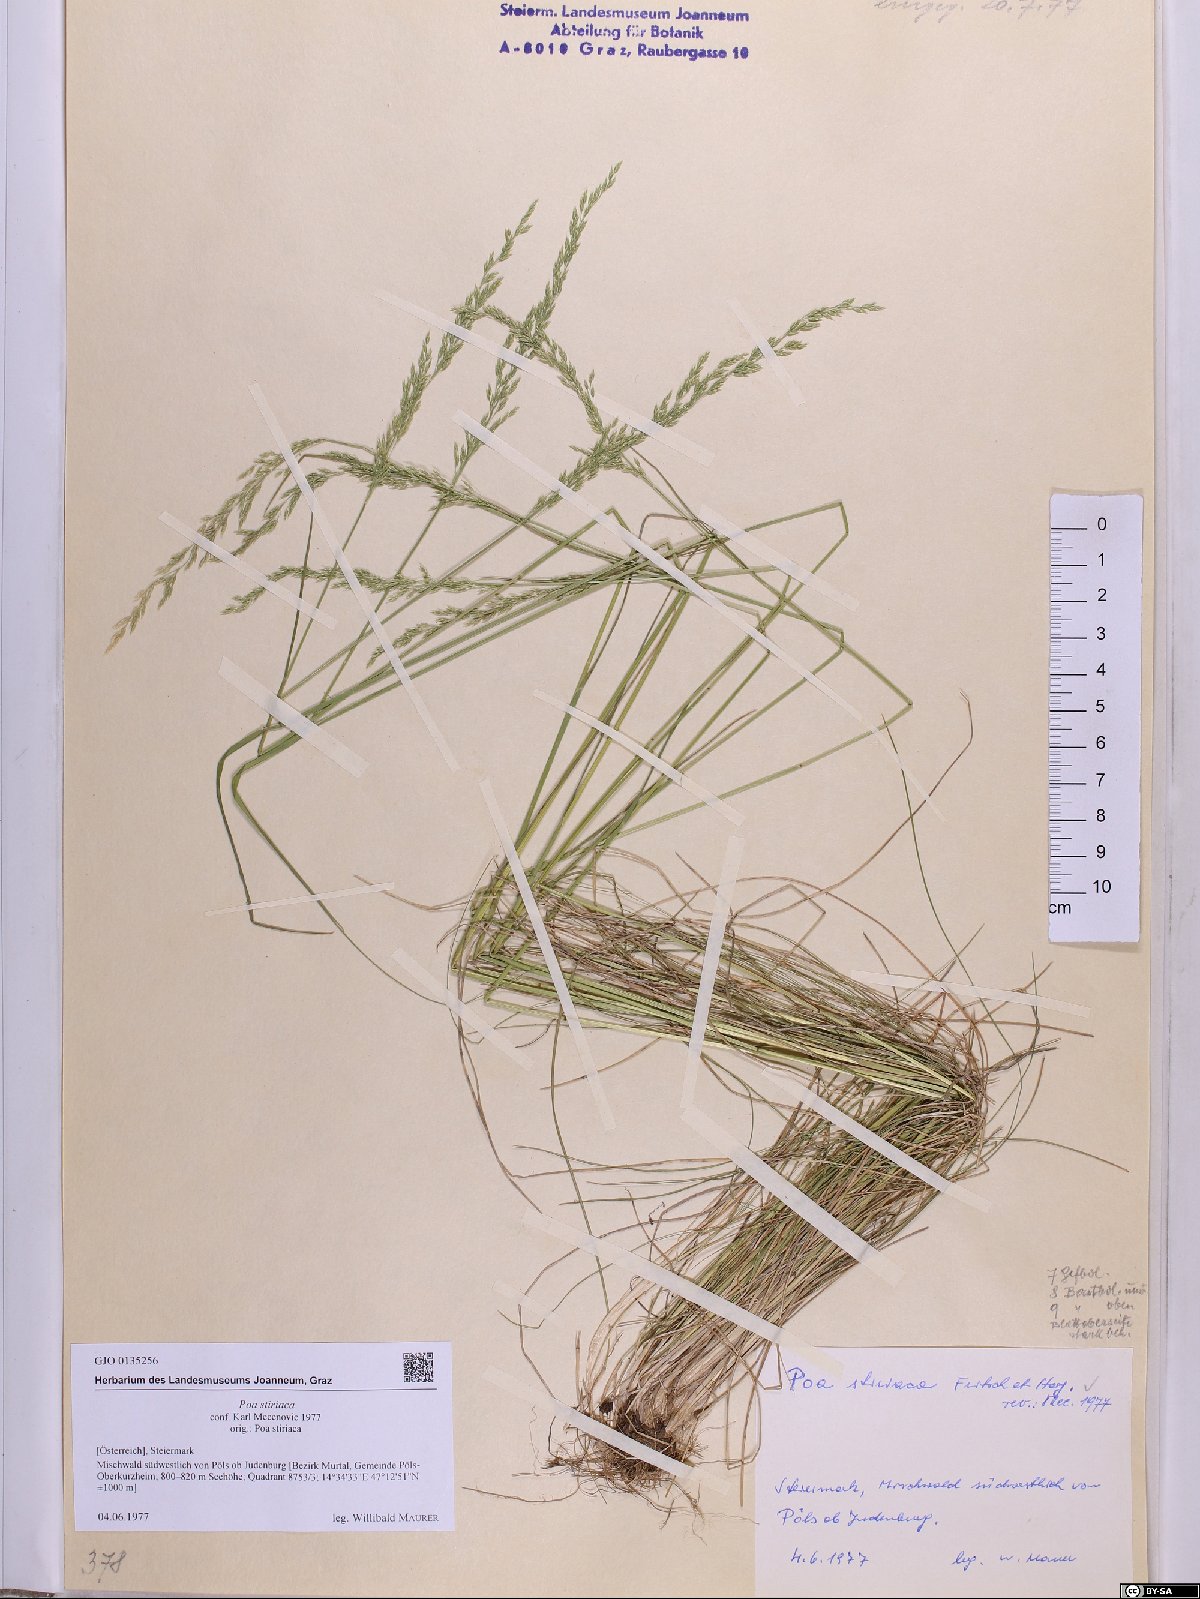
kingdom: Plantae
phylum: Tracheophyta
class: Liliopsida
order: Poales
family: Poaceae
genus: Poa
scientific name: Poa stiriaca
